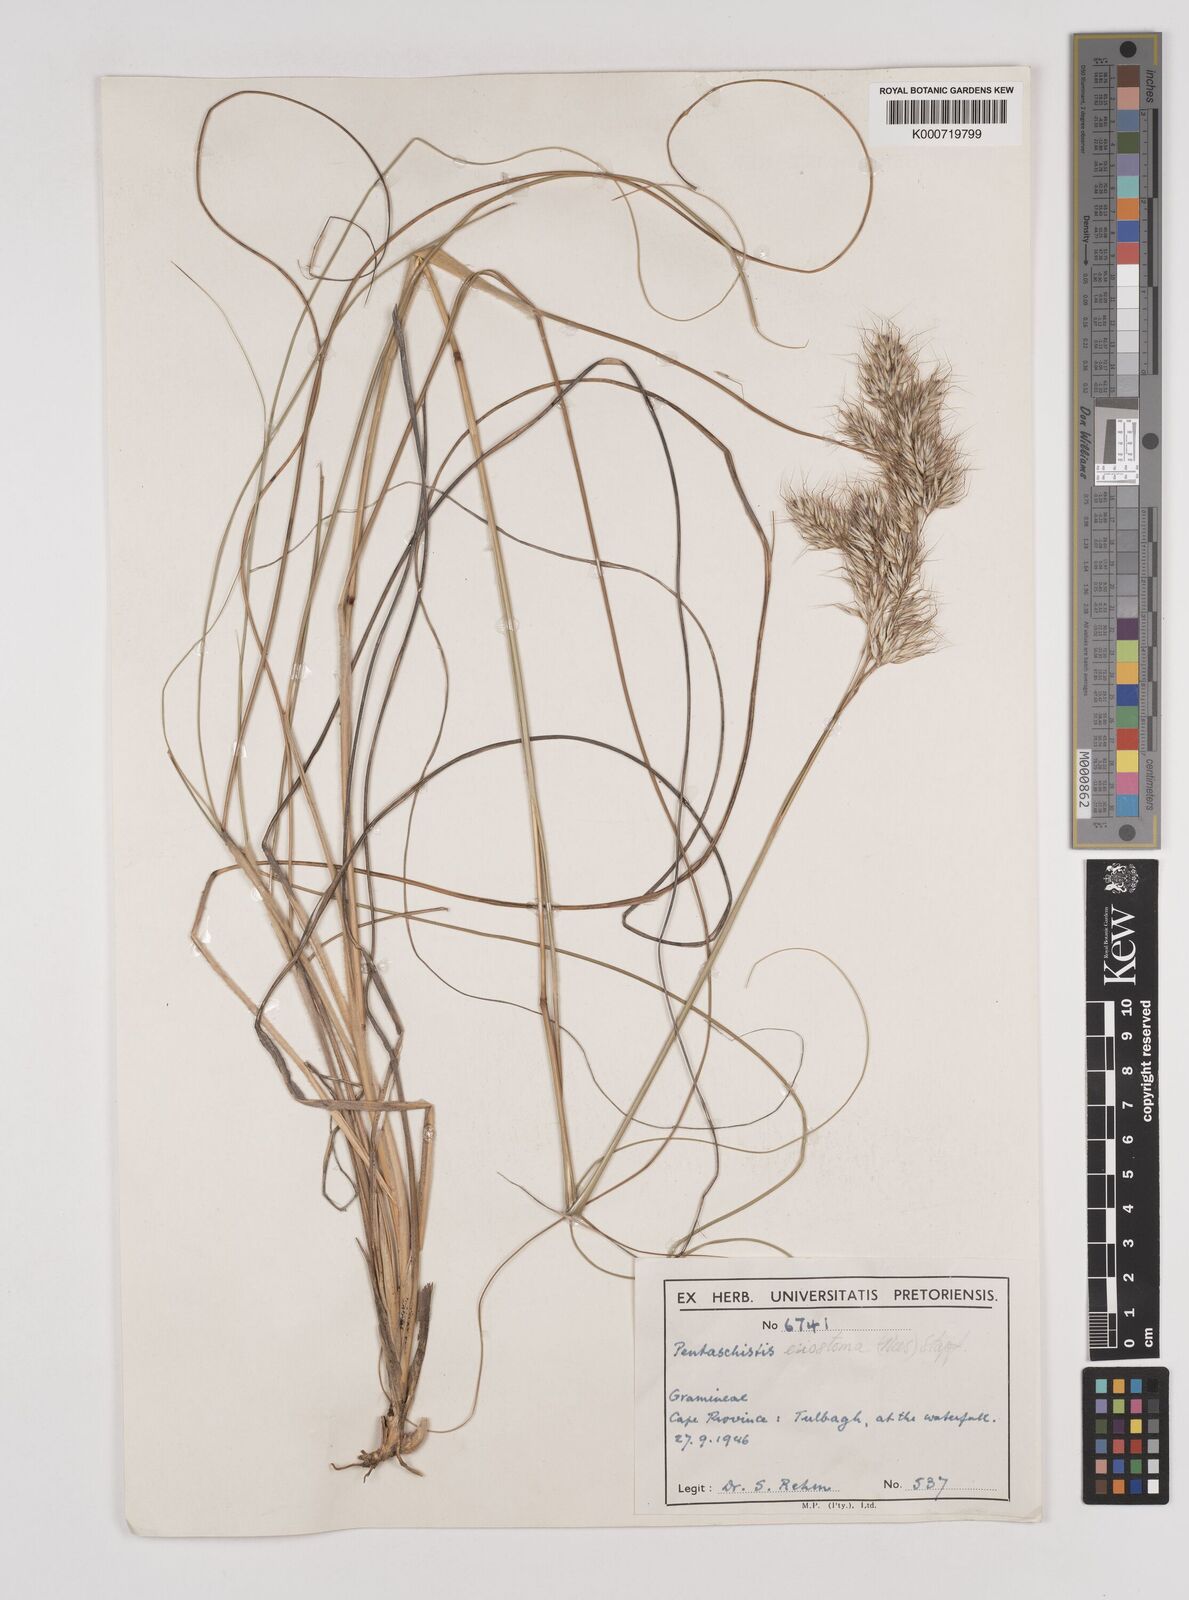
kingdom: Plantae
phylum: Tracheophyta
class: Liliopsida
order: Poales
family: Poaceae
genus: Pentameris
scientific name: Pentameris eriostoma
